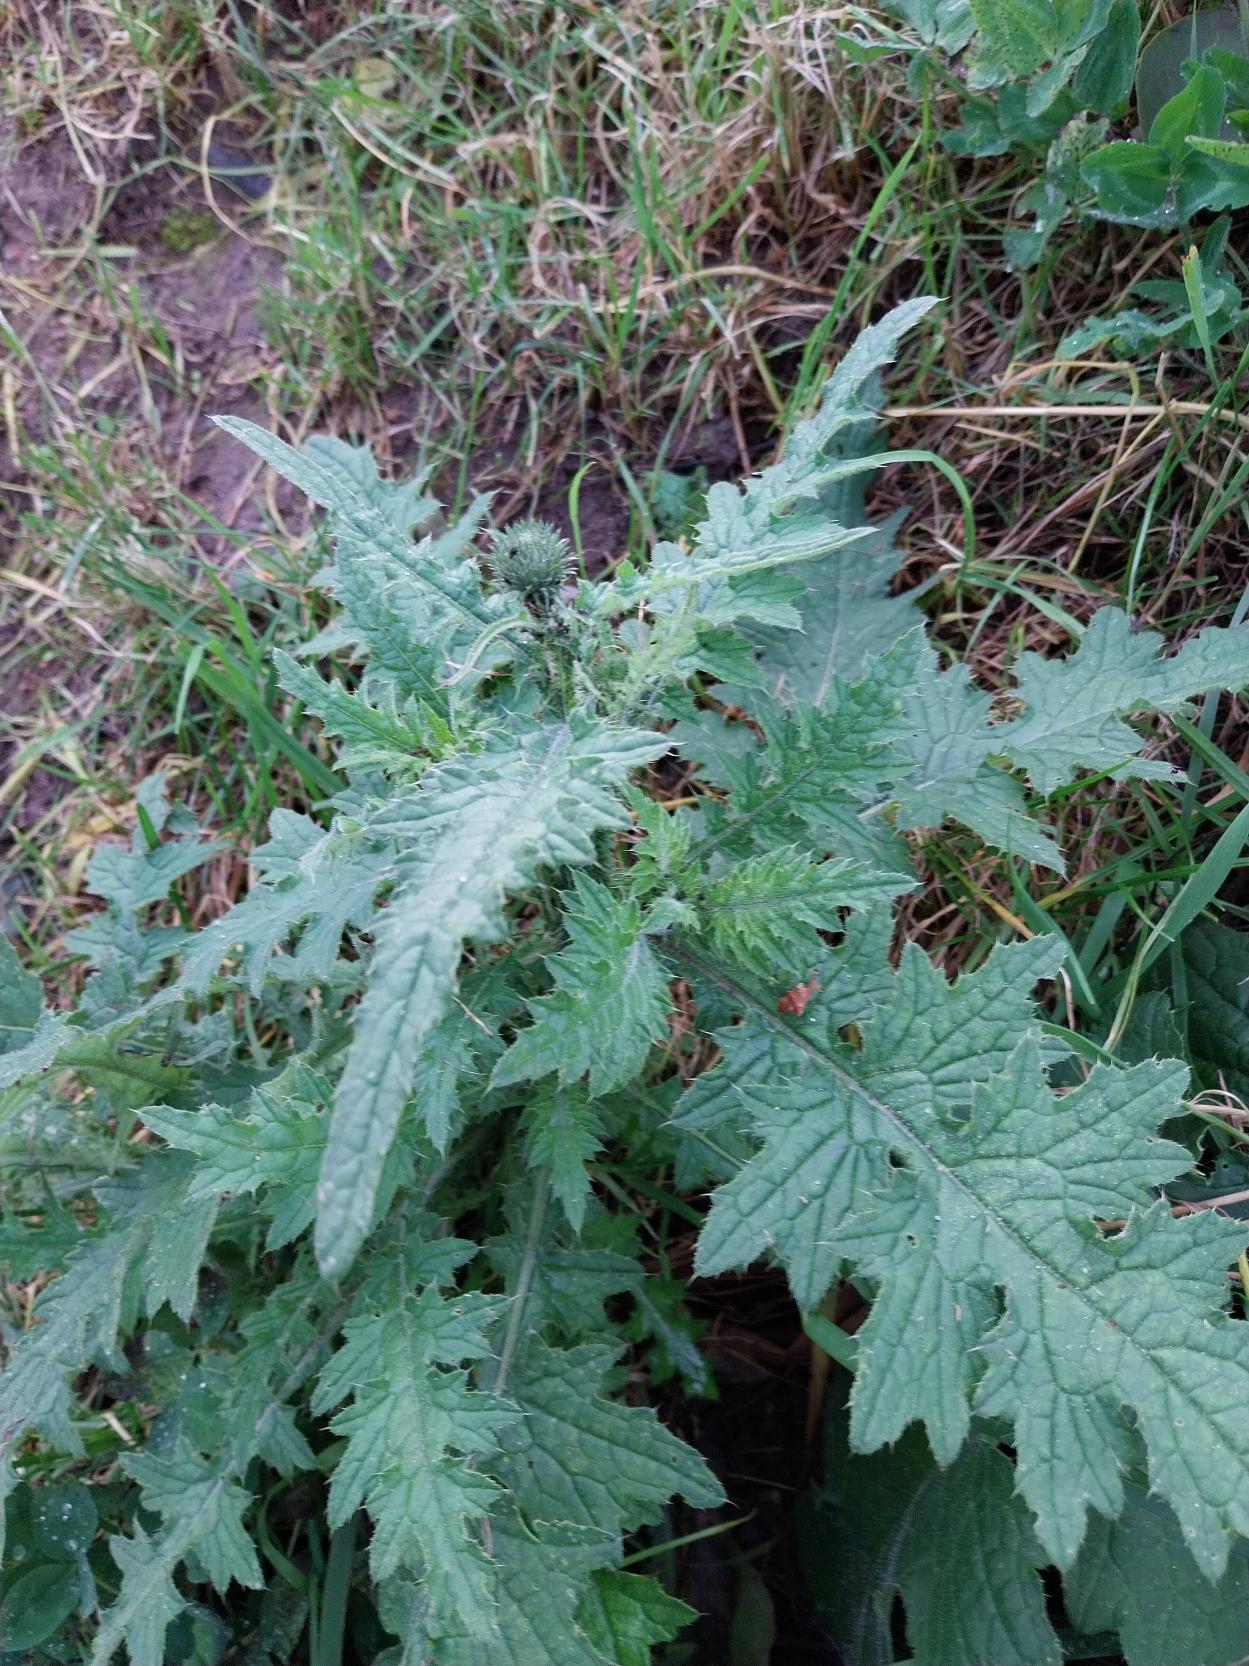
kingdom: Plantae
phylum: Tracheophyta
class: Magnoliopsida
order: Asterales
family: Asteraceae
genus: Carduus
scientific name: Carduus crispus
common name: Kruset tidsel
